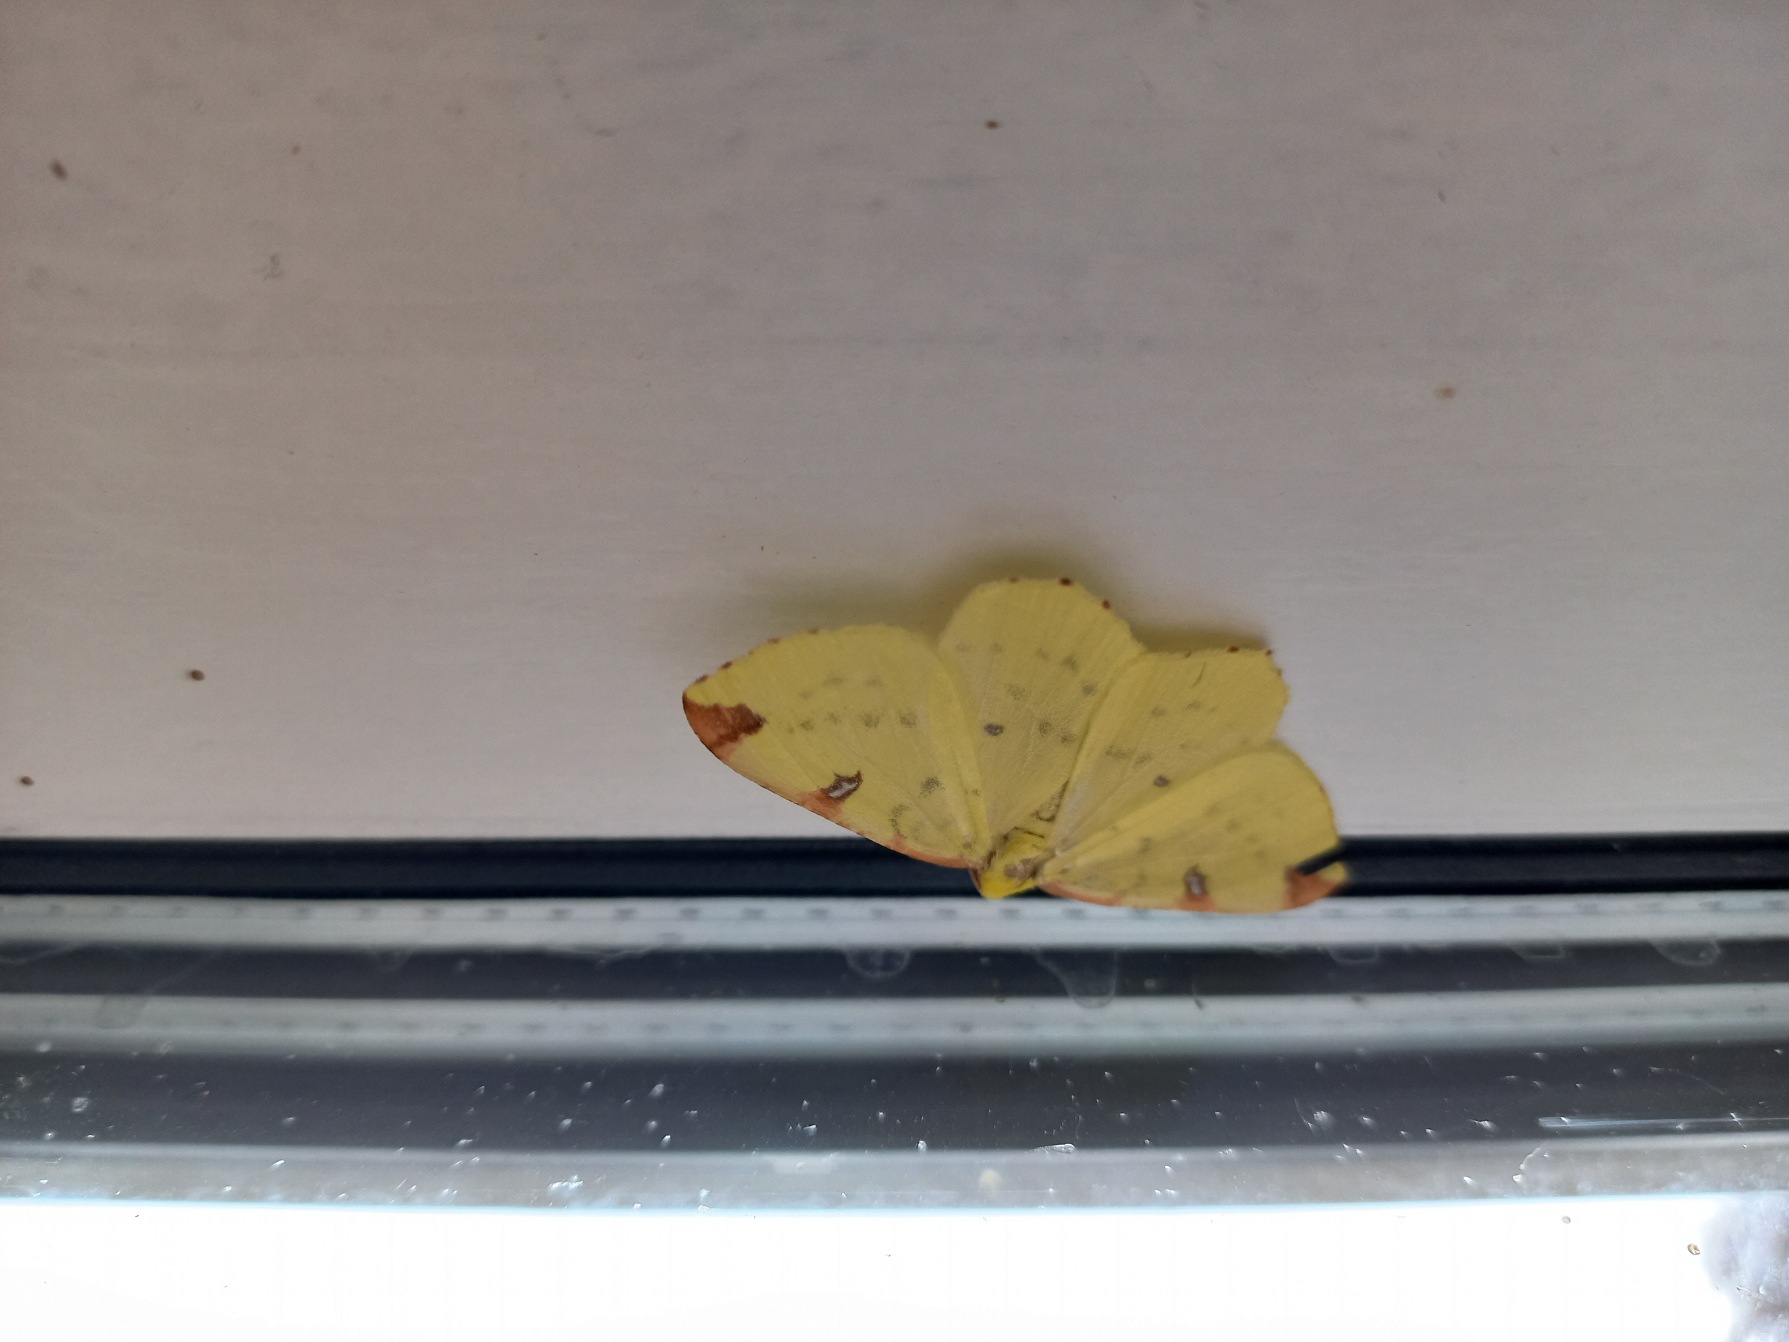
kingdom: Animalia
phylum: Arthropoda
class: Insecta
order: Lepidoptera
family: Geometridae
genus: Opisthograptis
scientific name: Opisthograptis luteolata
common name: Citronmåler
